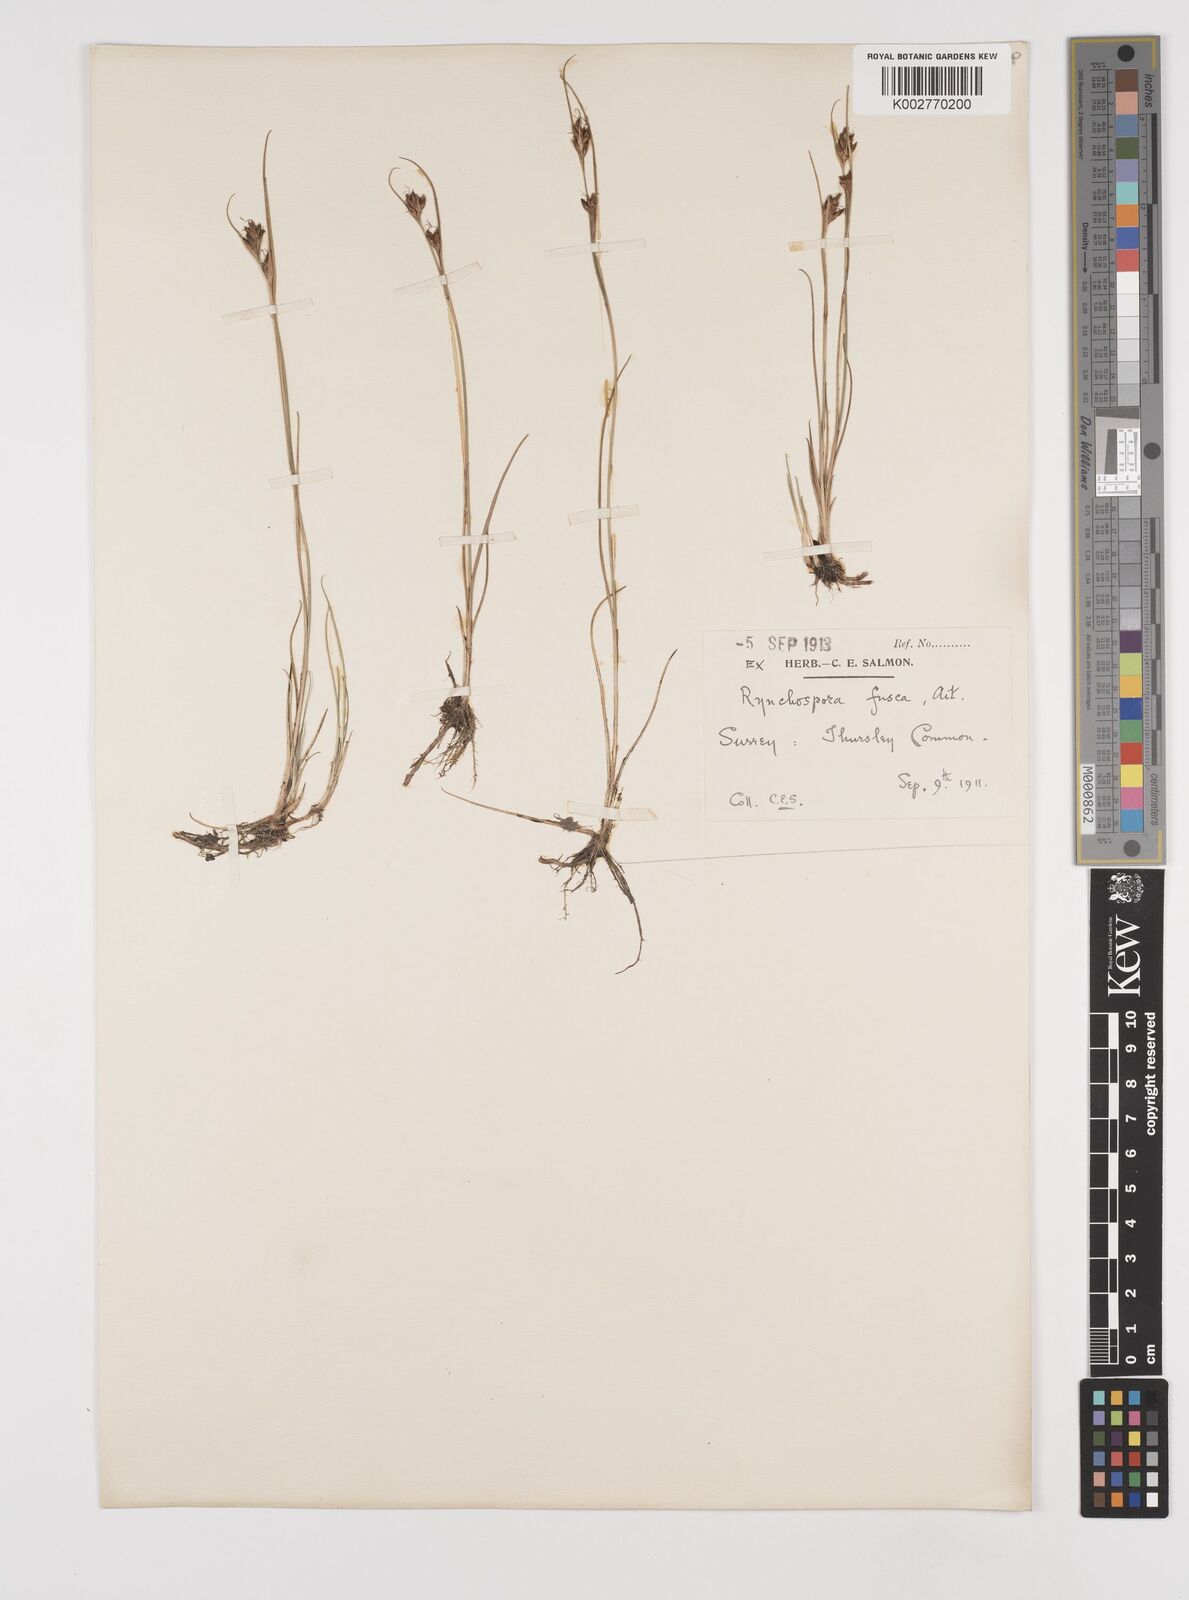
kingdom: Plantae
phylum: Tracheophyta
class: Liliopsida
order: Poales
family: Cyperaceae
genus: Rhynchospora
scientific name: Rhynchospora fusca
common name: Brown beak-sedge
